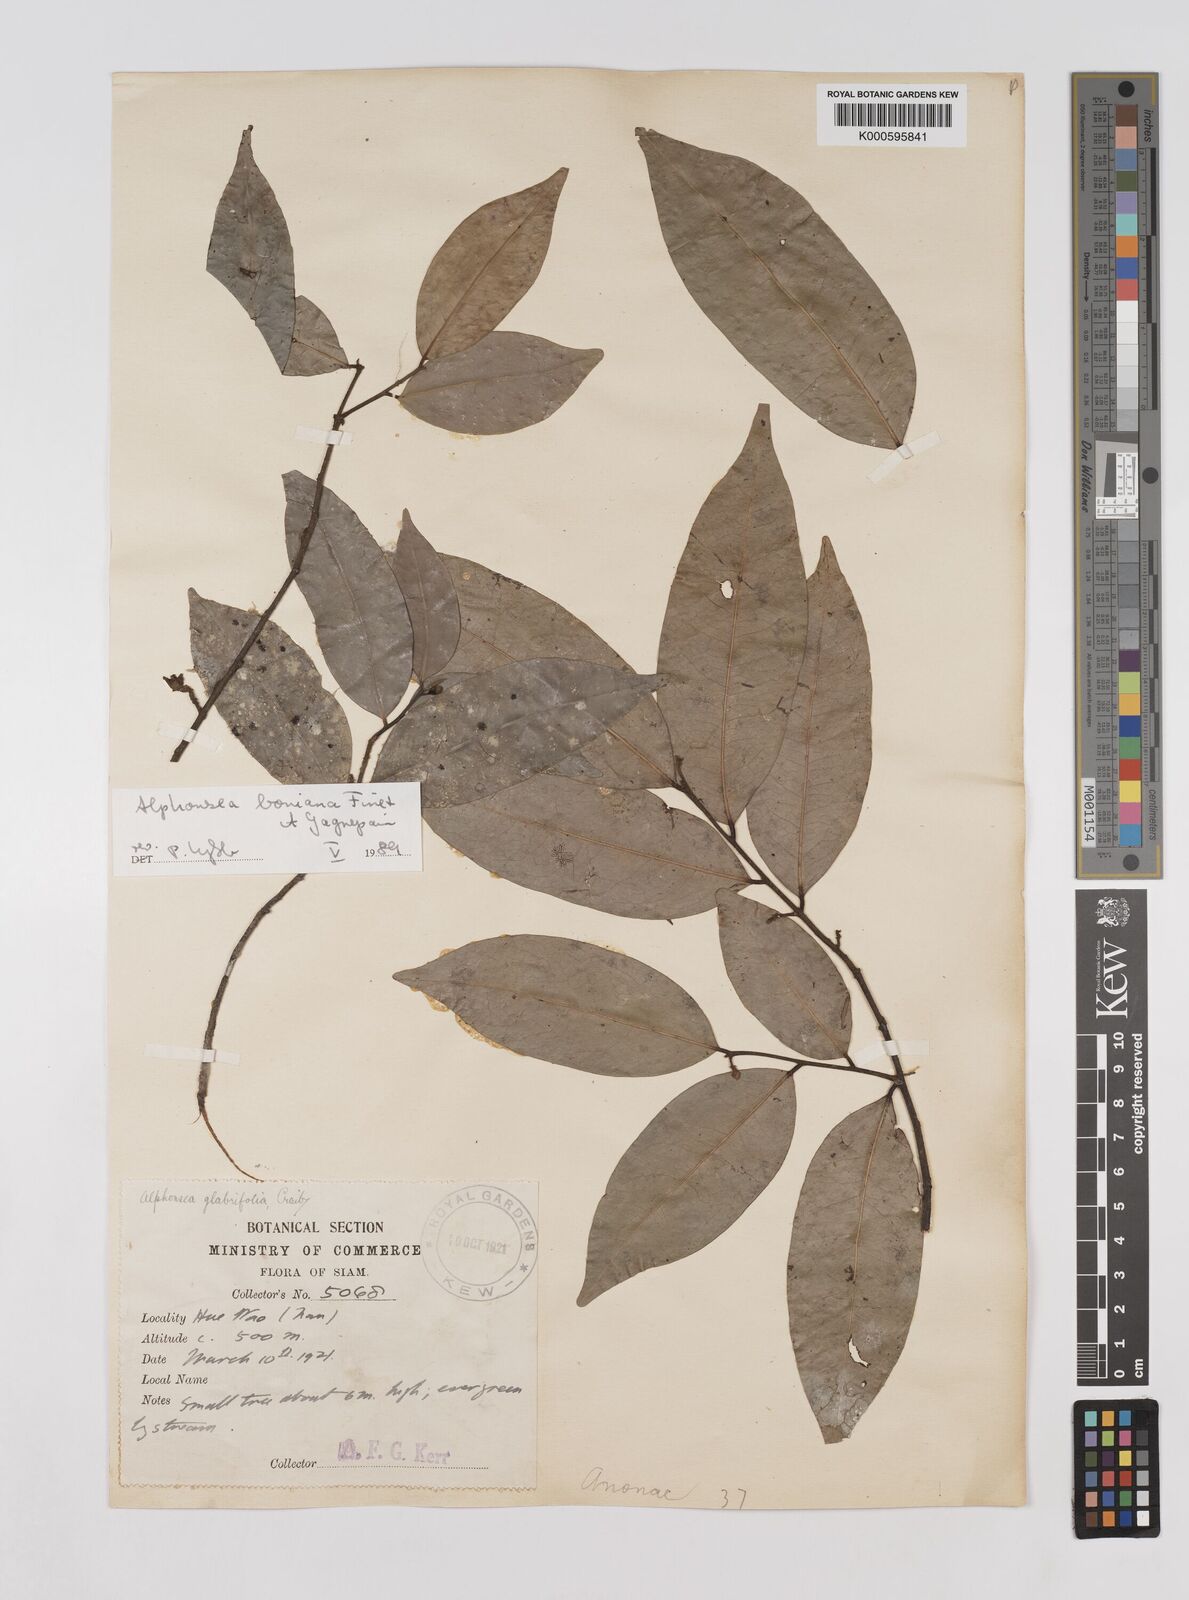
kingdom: Plantae
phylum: Tracheophyta
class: Magnoliopsida
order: Magnoliales
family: Annonaceae
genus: Alphonsea
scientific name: Alphonsea boniana
